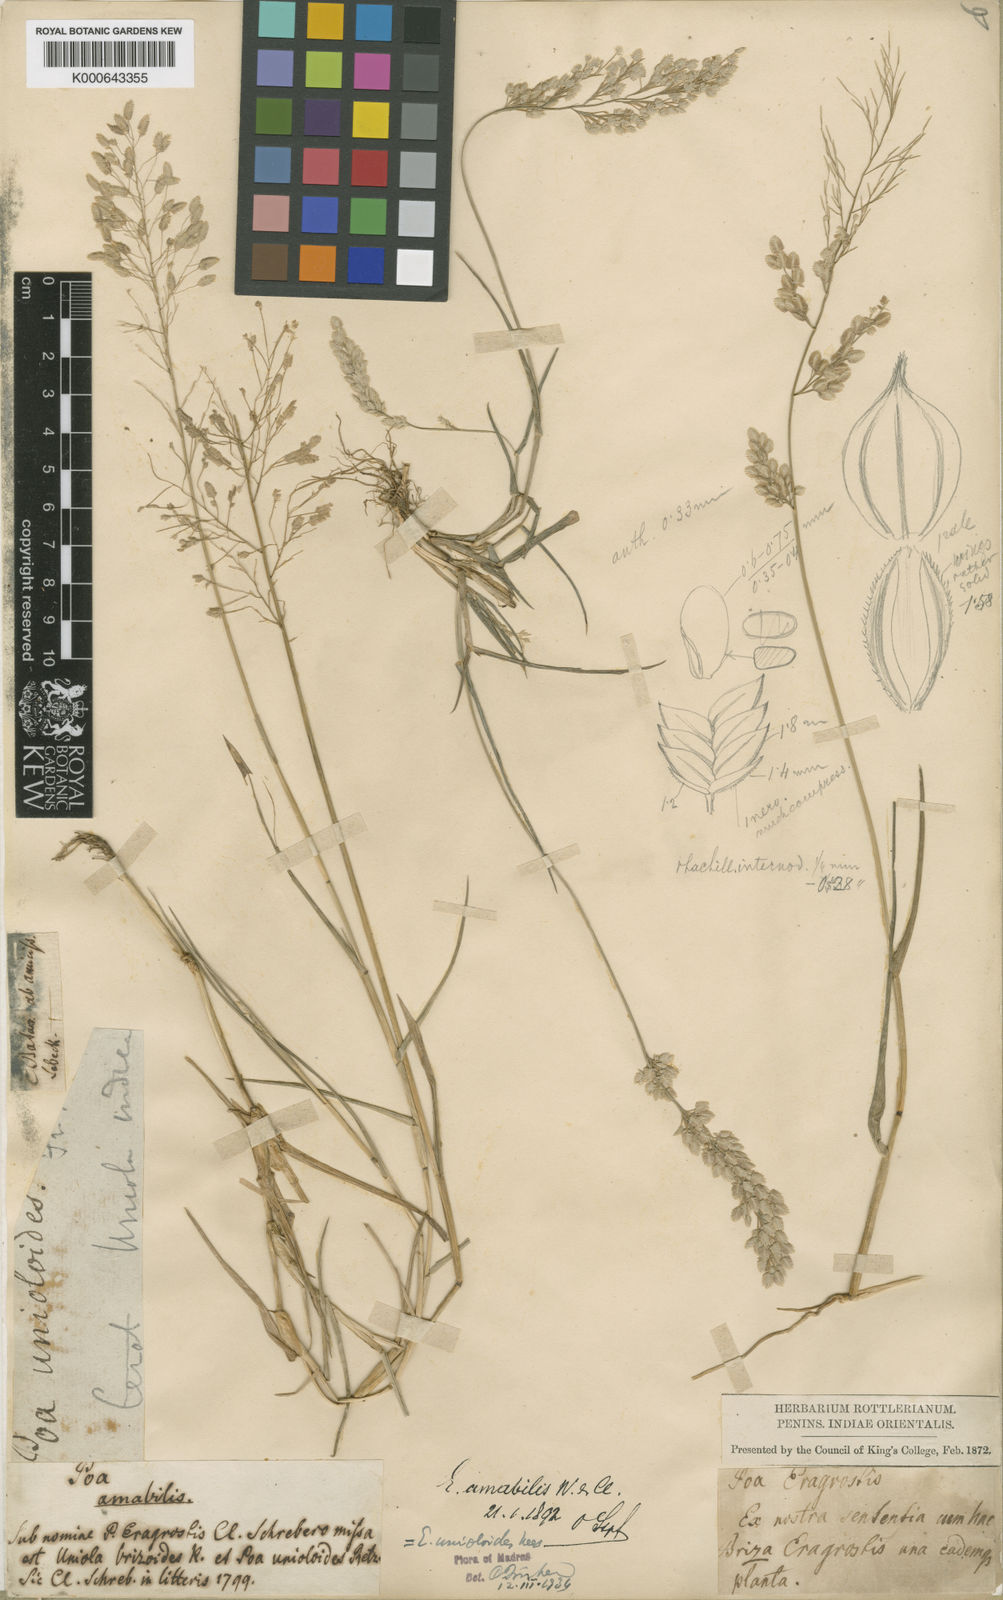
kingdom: Plantae
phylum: Tracheophyta
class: Liliopsida
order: Poales
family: Poaceae
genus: Eragrostis
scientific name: Eragrostis unioloides
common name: Chinese lovegrass
